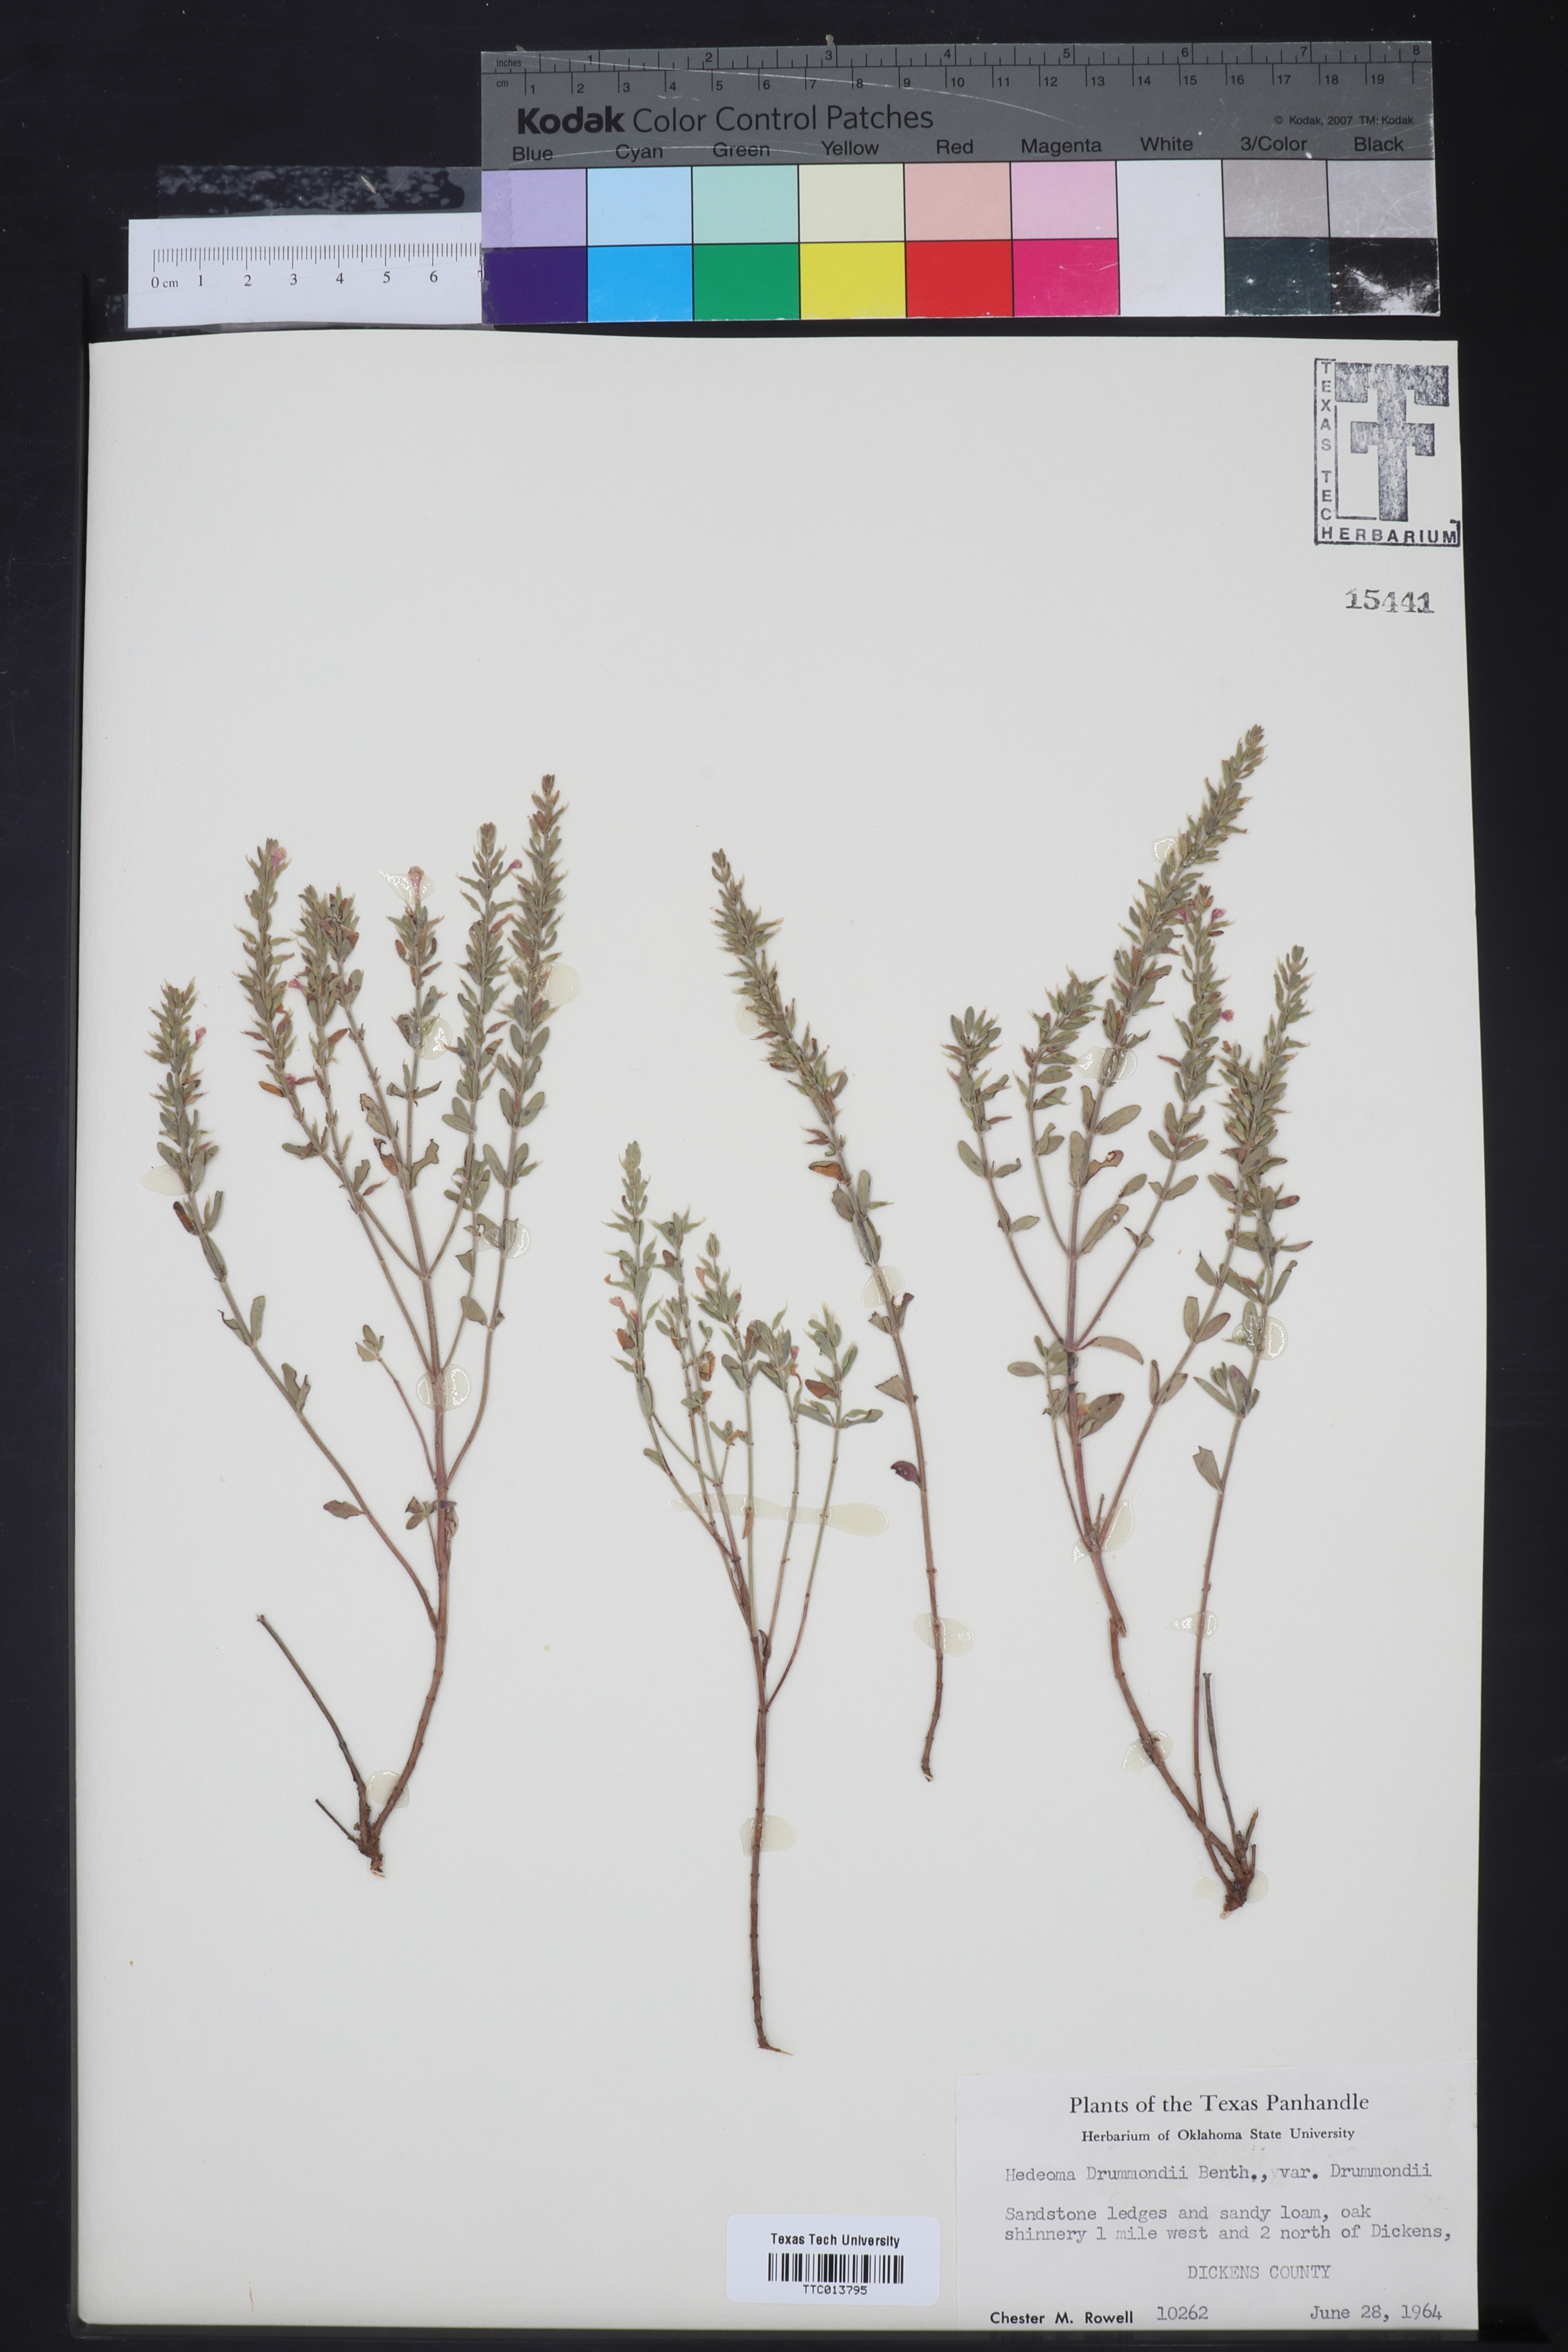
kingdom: Plantae
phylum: Tracheophyta
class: Magnoliopsida
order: Lamiales
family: Lamiaceae
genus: Hedeoma
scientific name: Hedeoma drummondii
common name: New mexico pennyroyal
